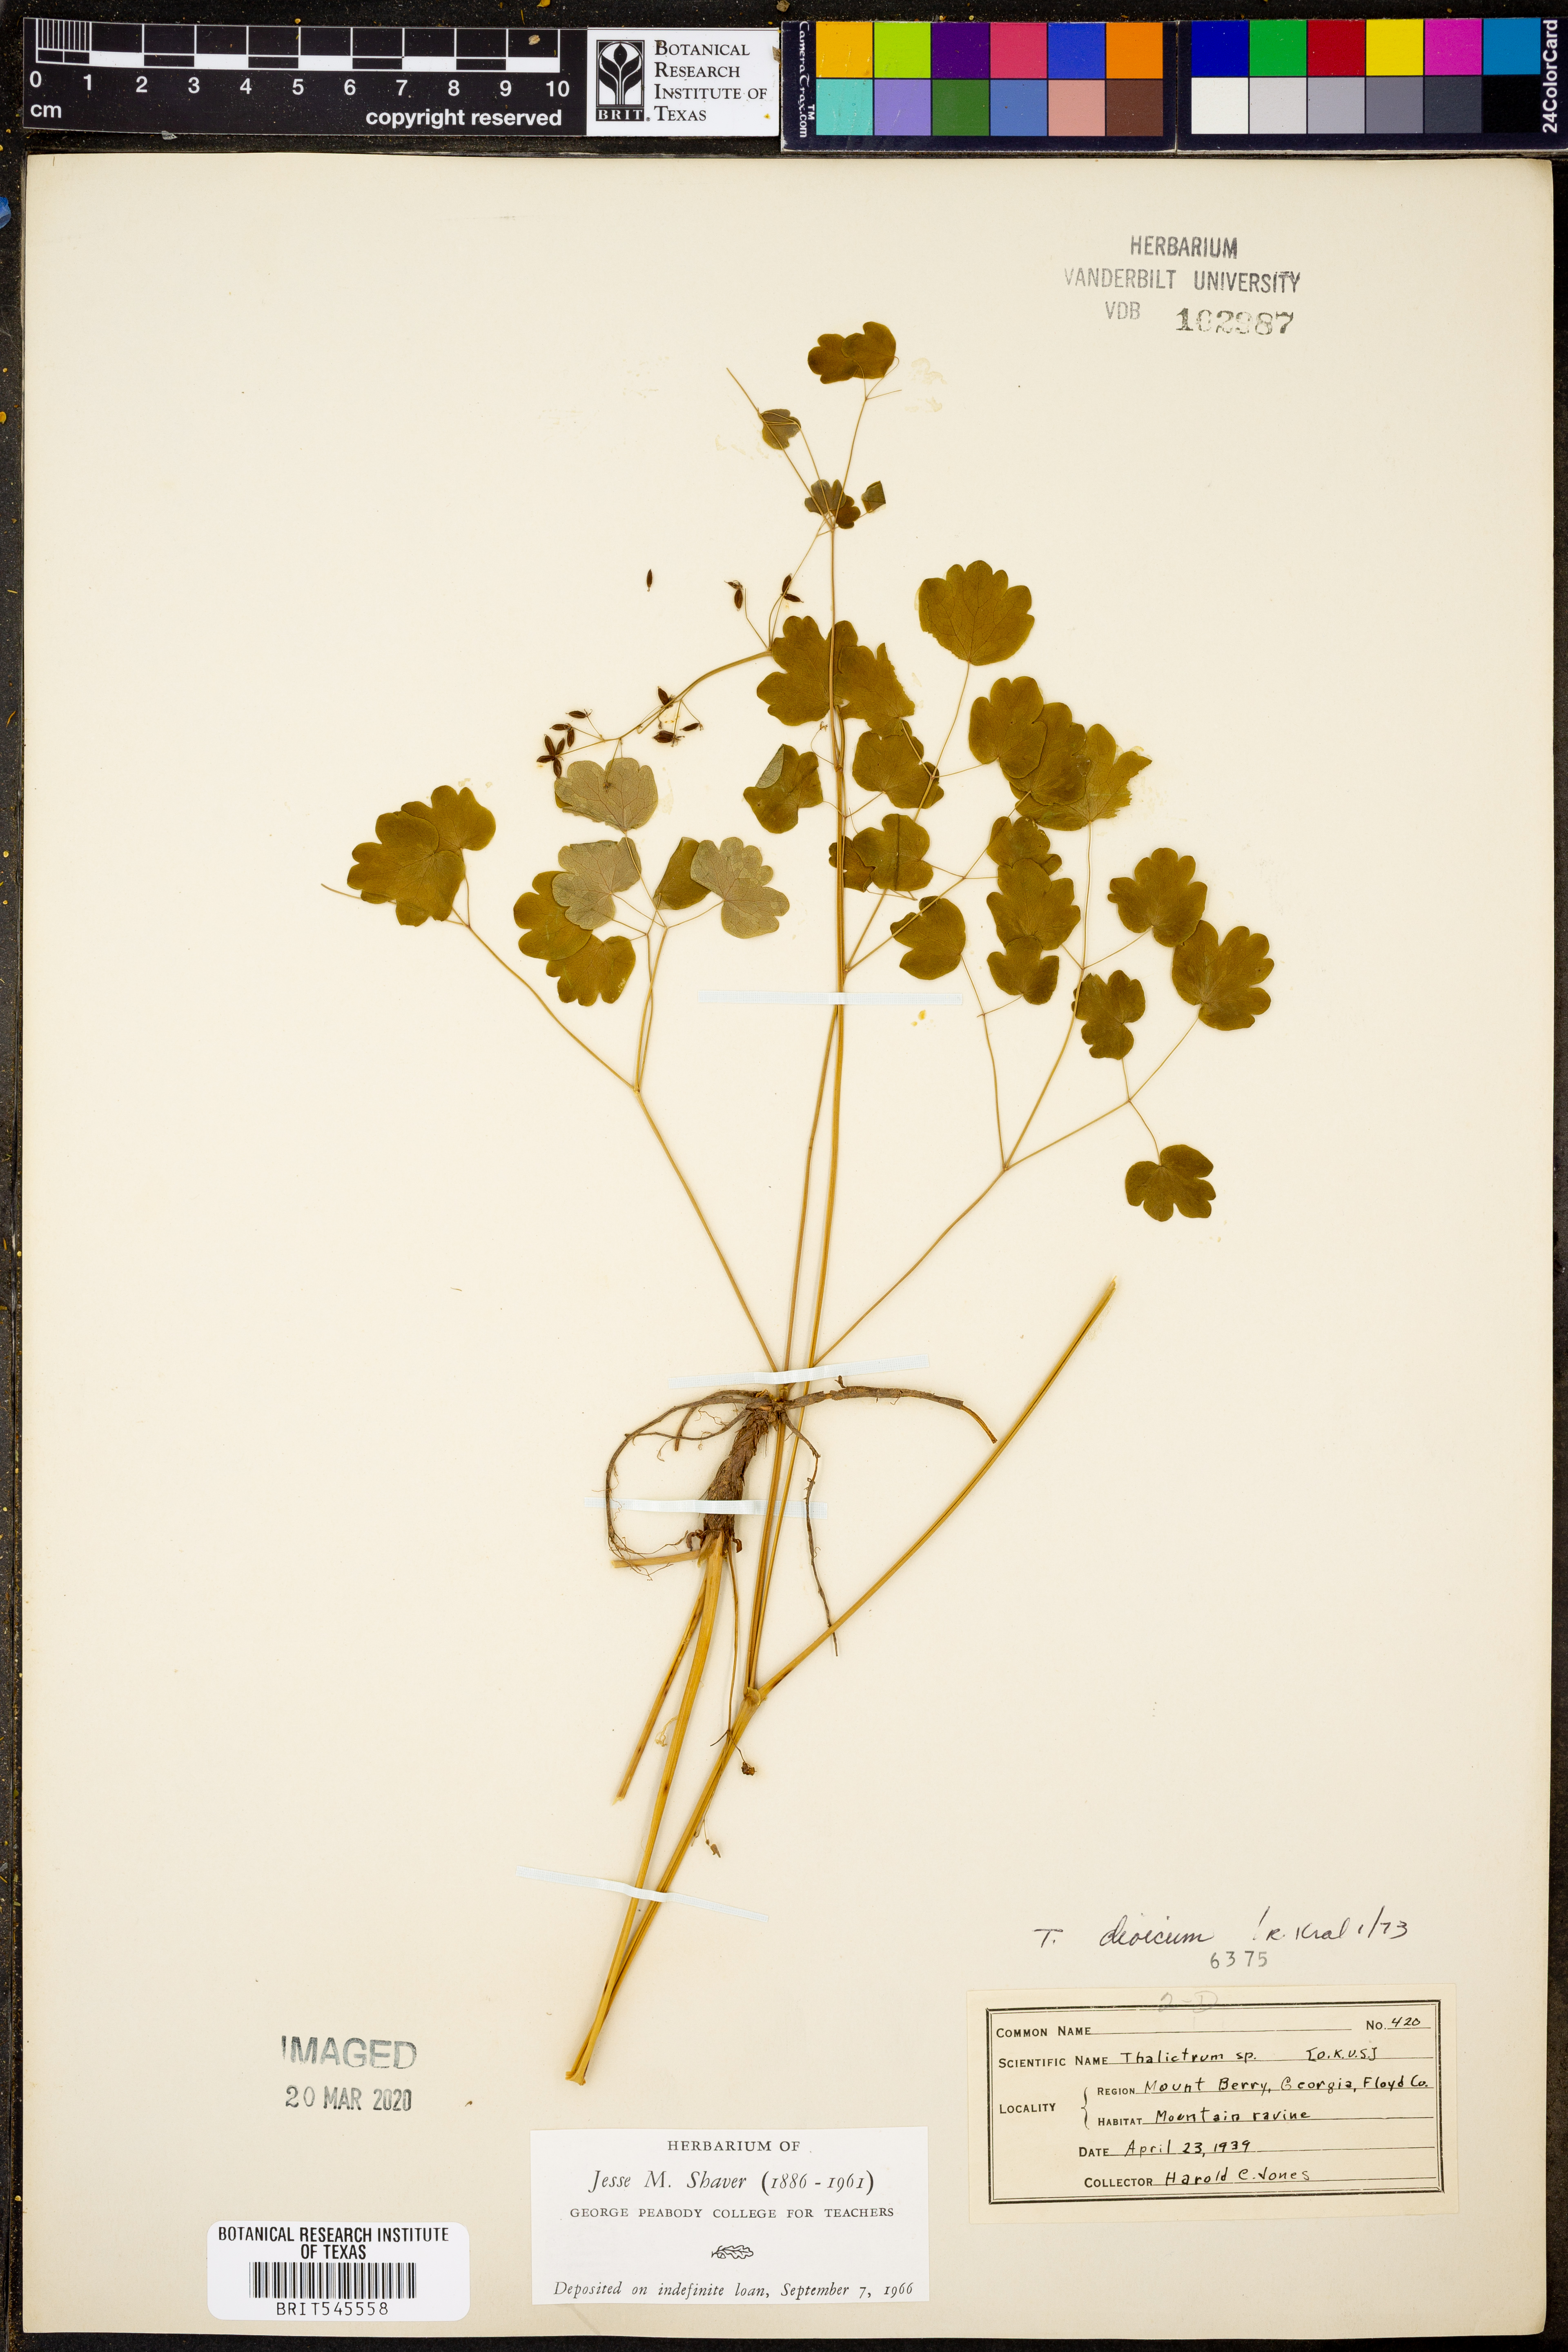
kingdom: Plantae
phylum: Tracheophyta
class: Magnoliopsida
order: Ranunculales
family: Ranunculaceae
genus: Thalictrum
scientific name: Thalictrum dioicum
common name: Early meadow-rue
